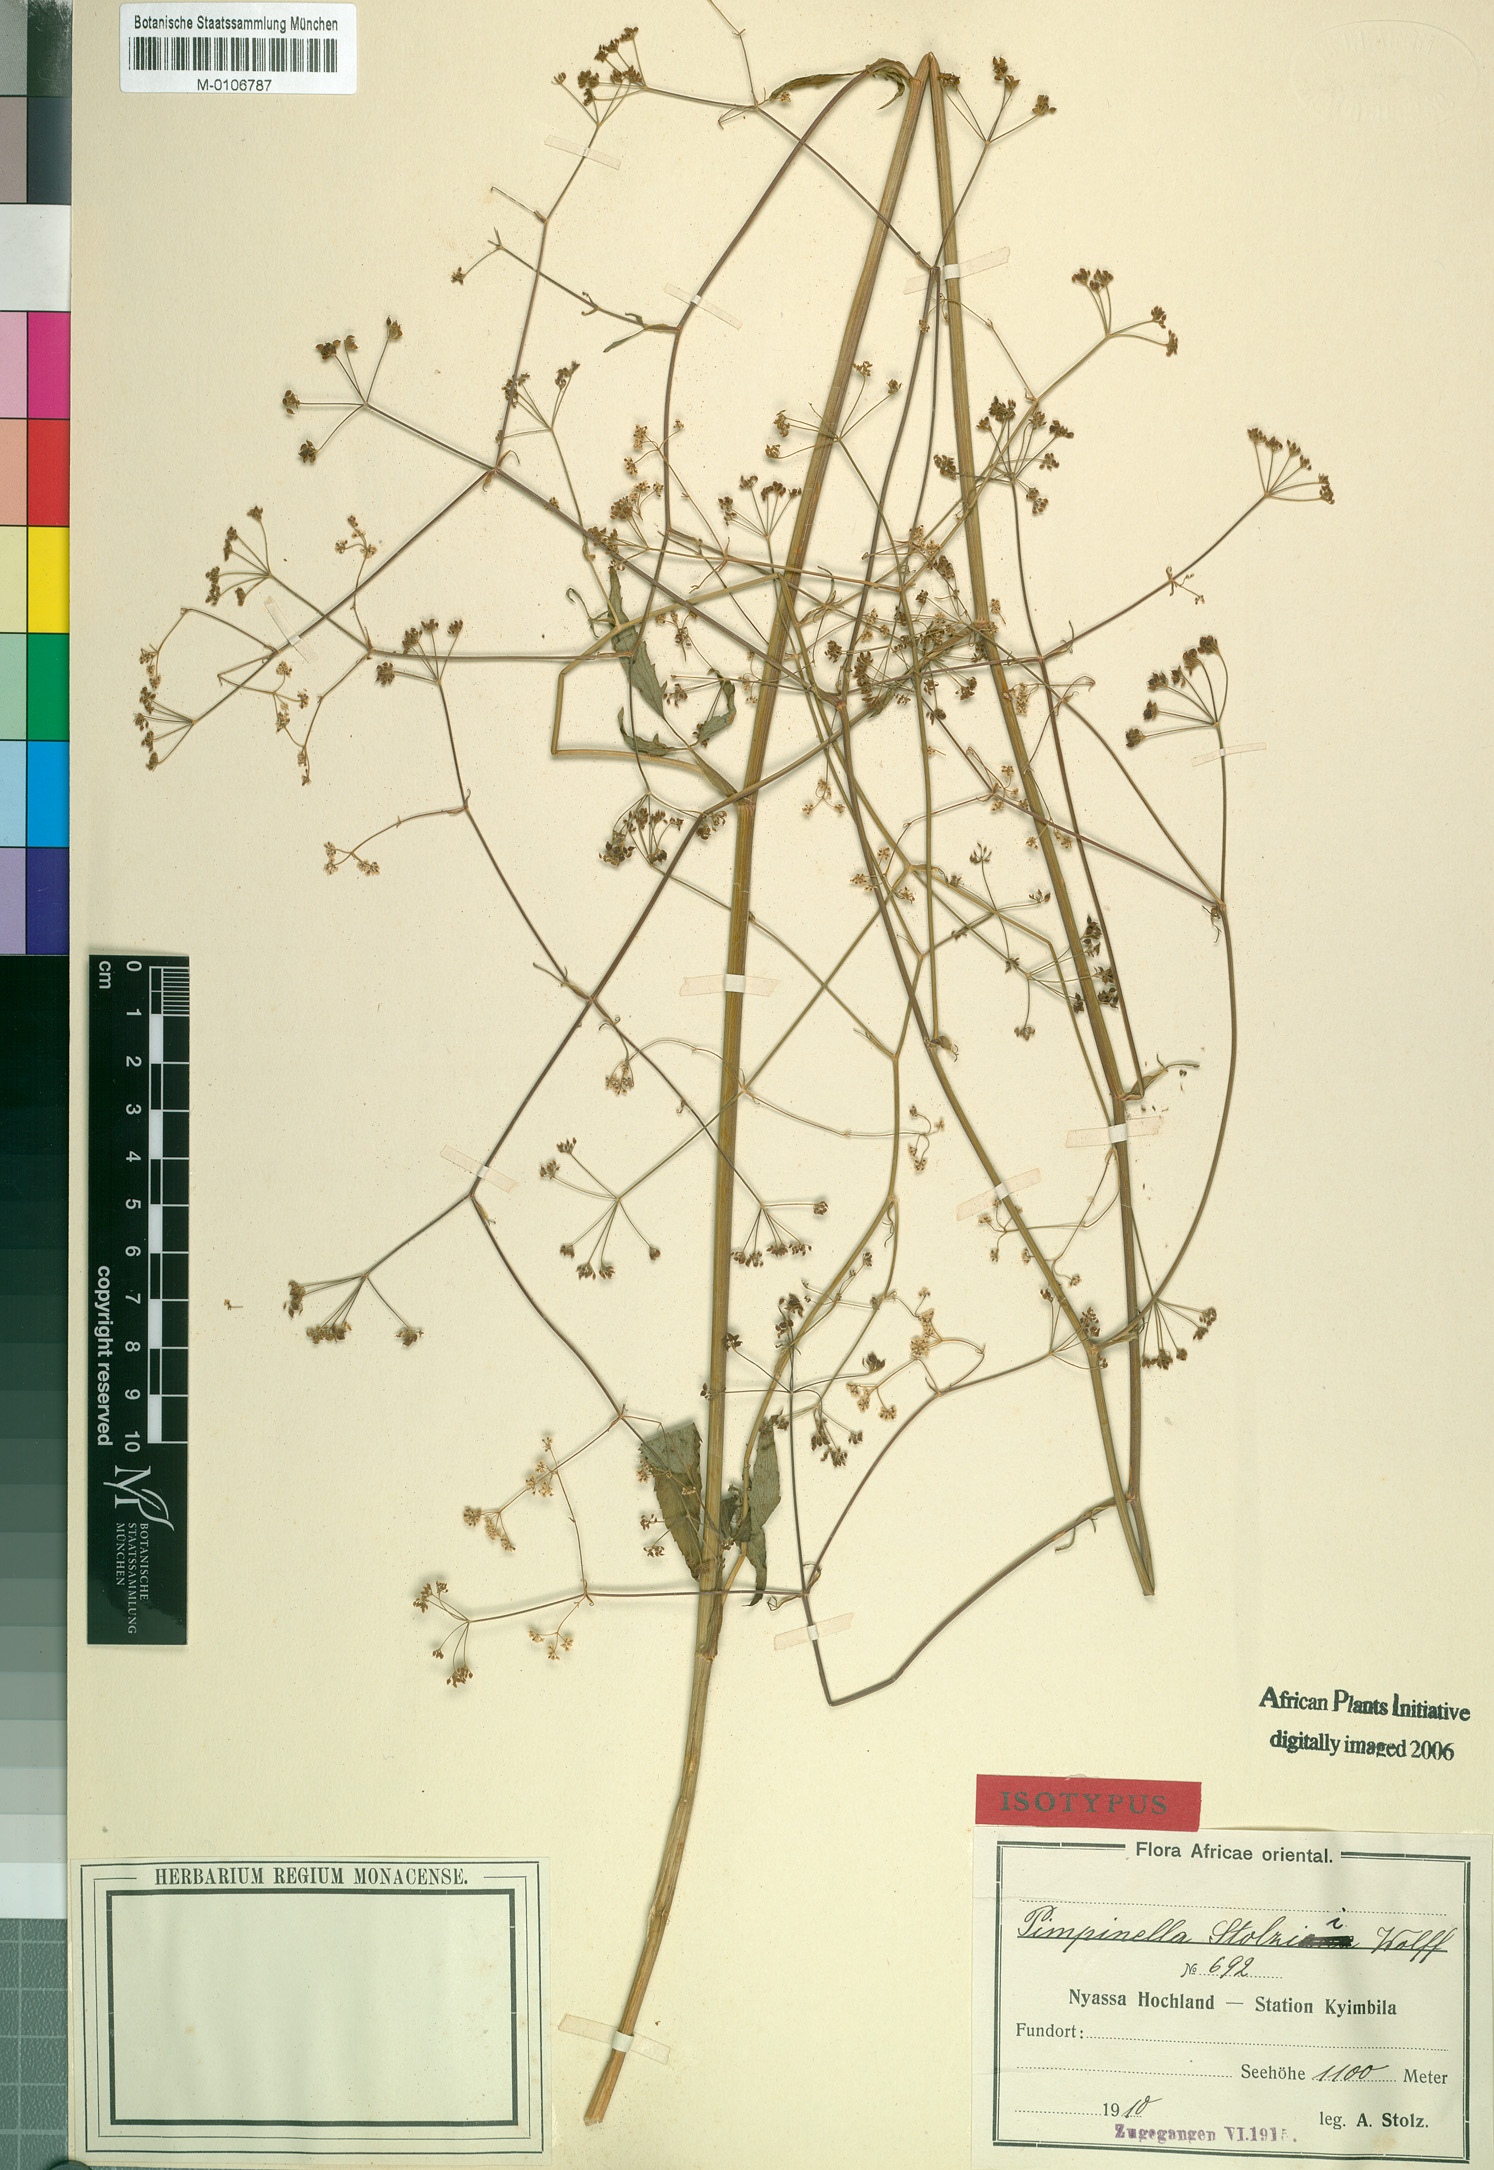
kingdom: Plantae
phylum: Tracheophyta
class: Magnoliopsida
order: Apiales
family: Apiaceae
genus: Pimpinella
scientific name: Pimpinella buchananii
